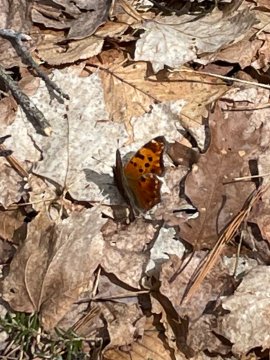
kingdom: Animalia
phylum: Arthropoda
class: Insecta
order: Lepidoptera
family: Nymphalidae
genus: Polygonia
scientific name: Polygonia comma
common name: Eastern Comma
